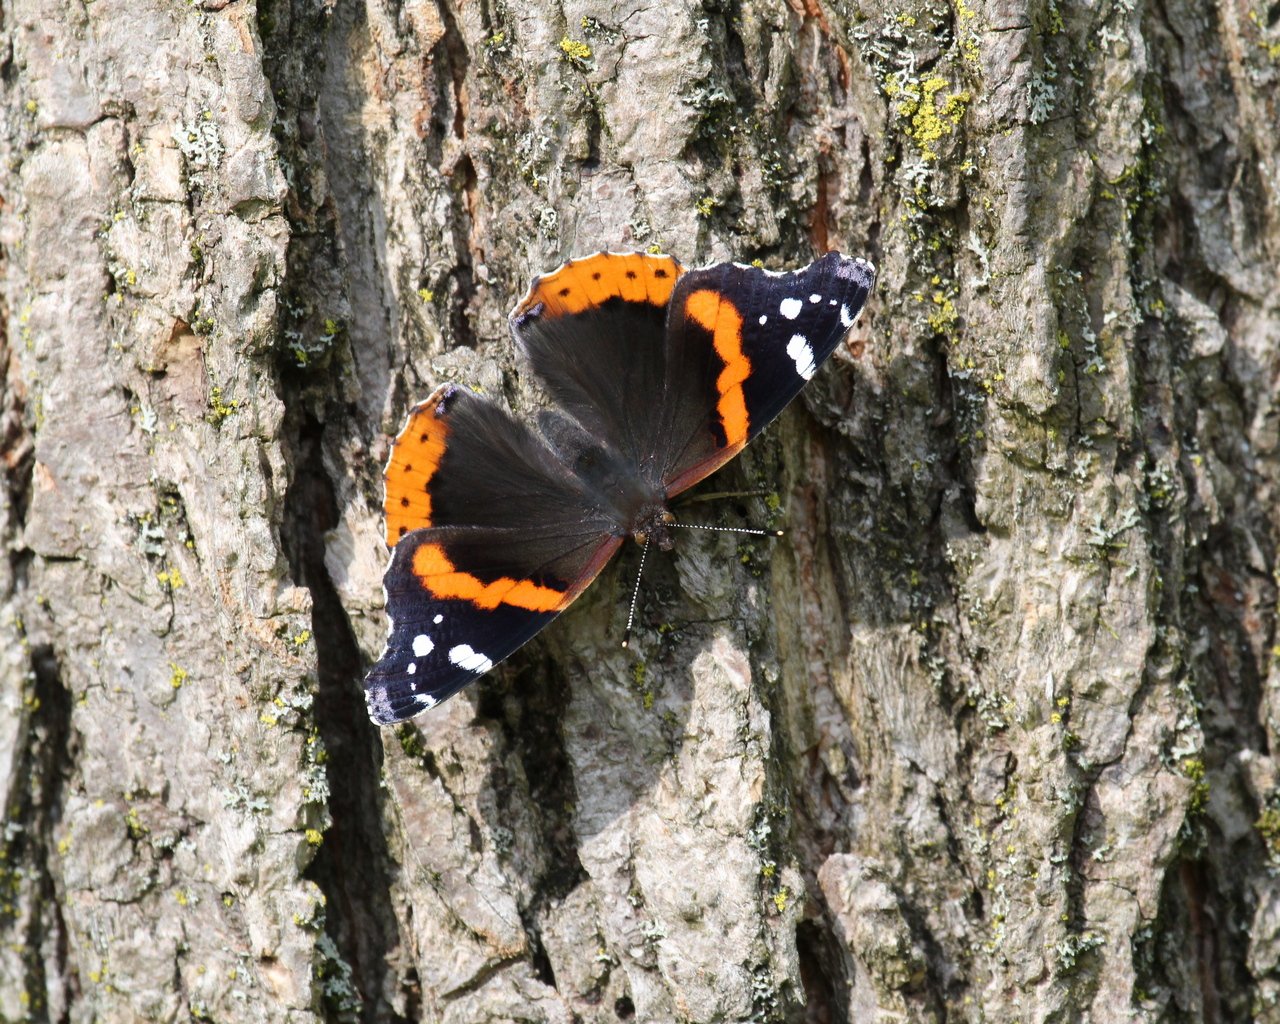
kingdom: Animalia
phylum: Arthropoda
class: Insecta
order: Lepidoptera
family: Nymphalidae
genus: Vanessa
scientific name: Vanessa atalanta
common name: Red Admiral
